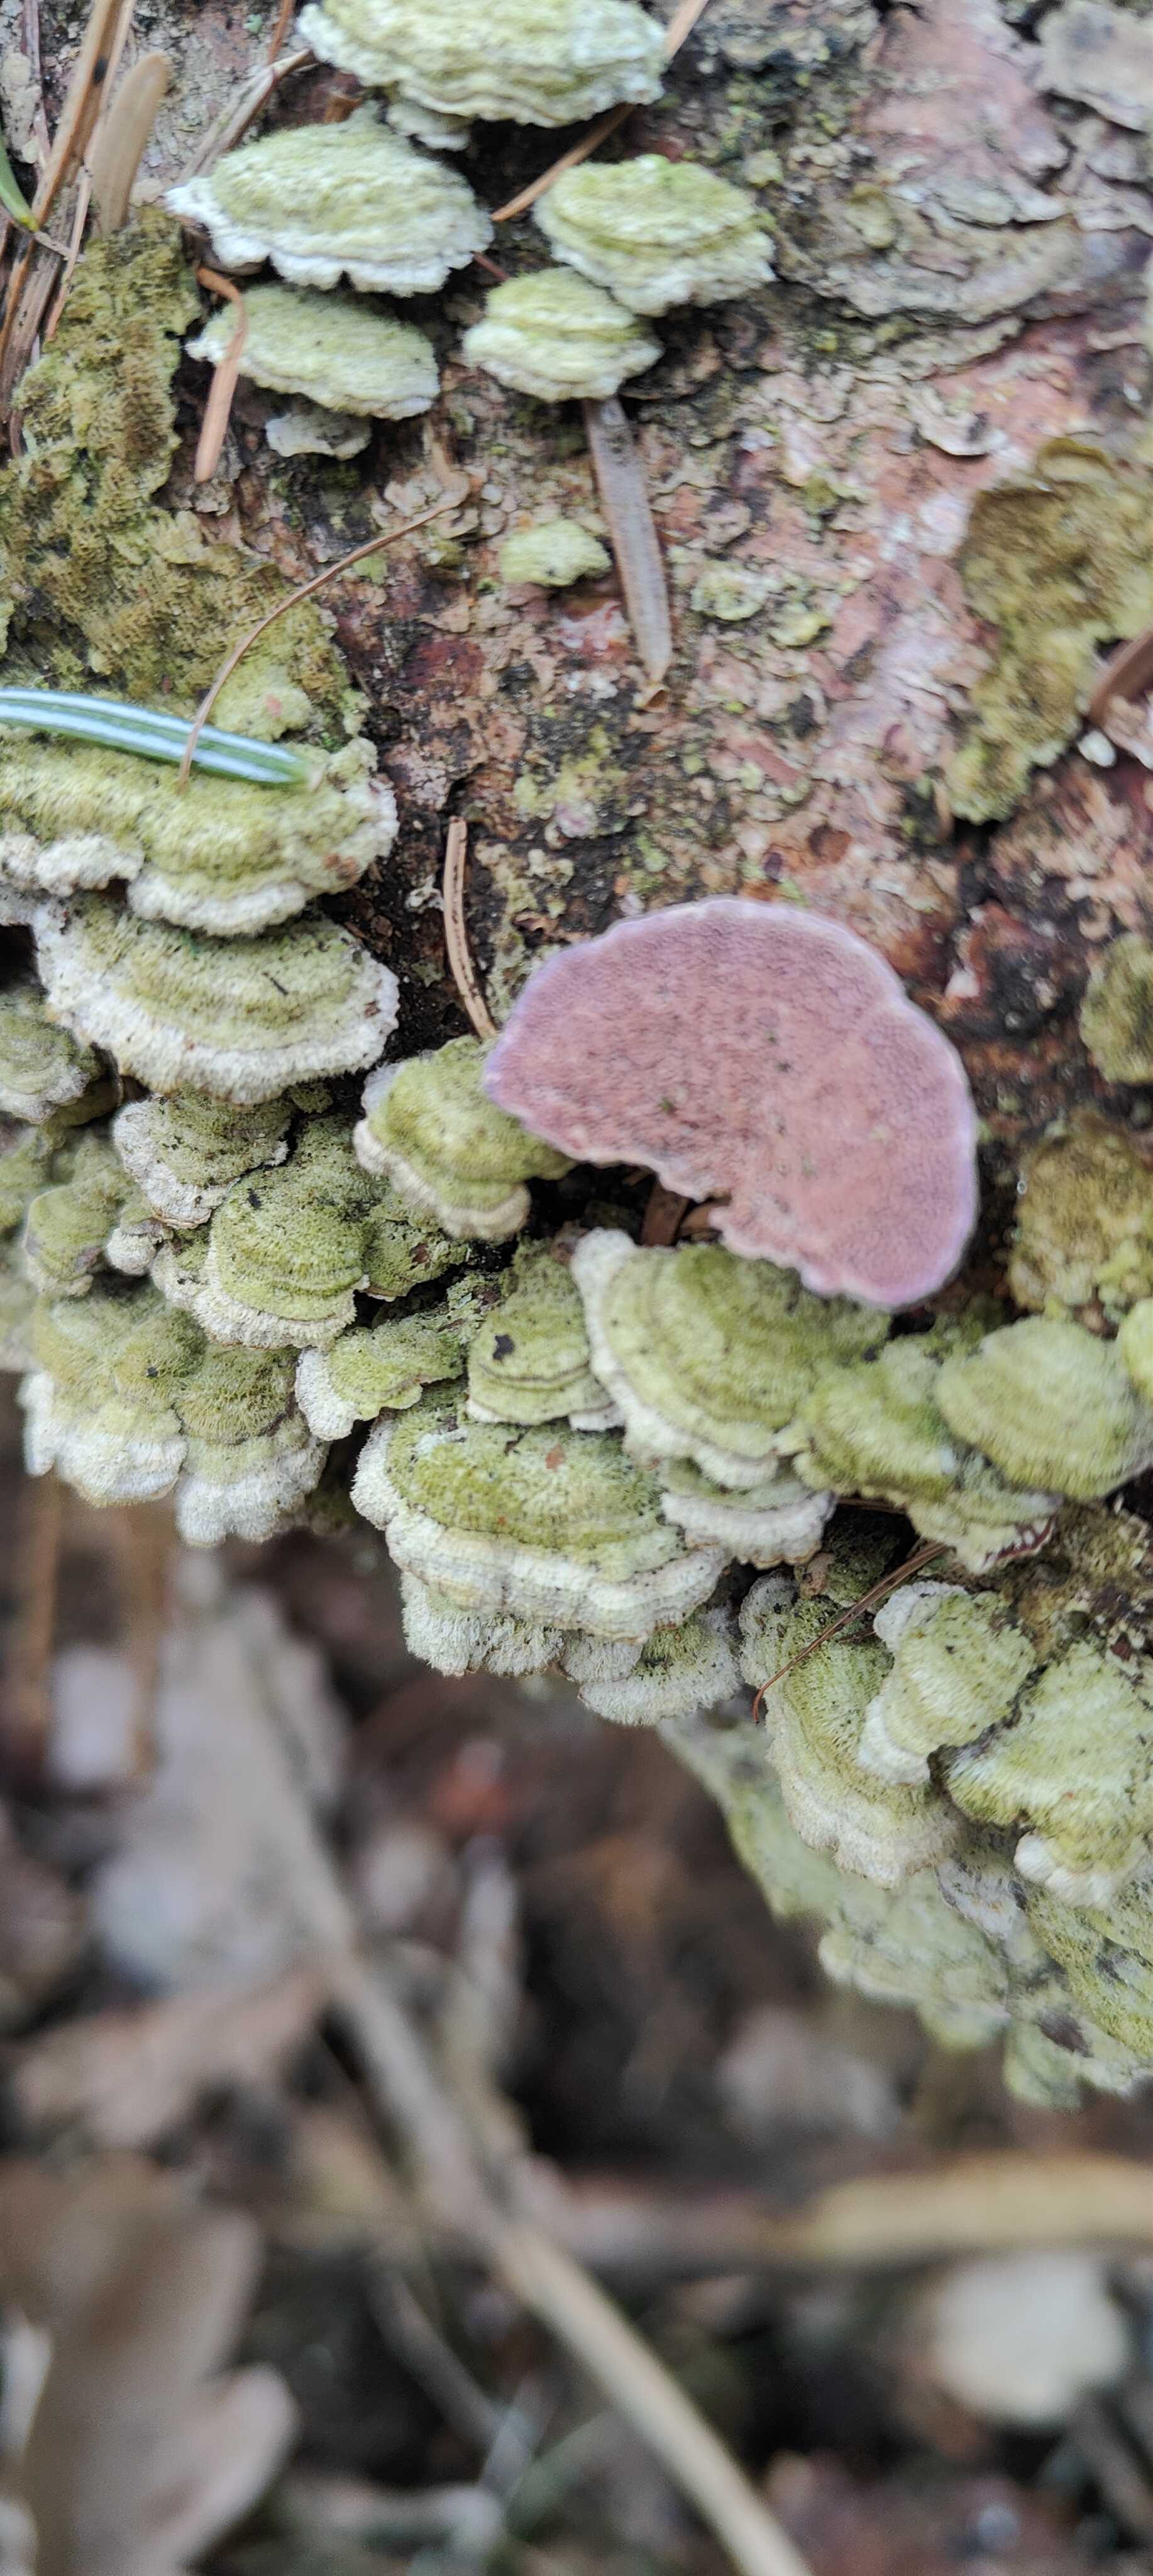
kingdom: Fungi
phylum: Basidiomycota
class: Agaricomycetes
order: Hymenochaetales
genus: Trichaptum
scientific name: Trichaptum abietinum
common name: almindelig violporesvamp
